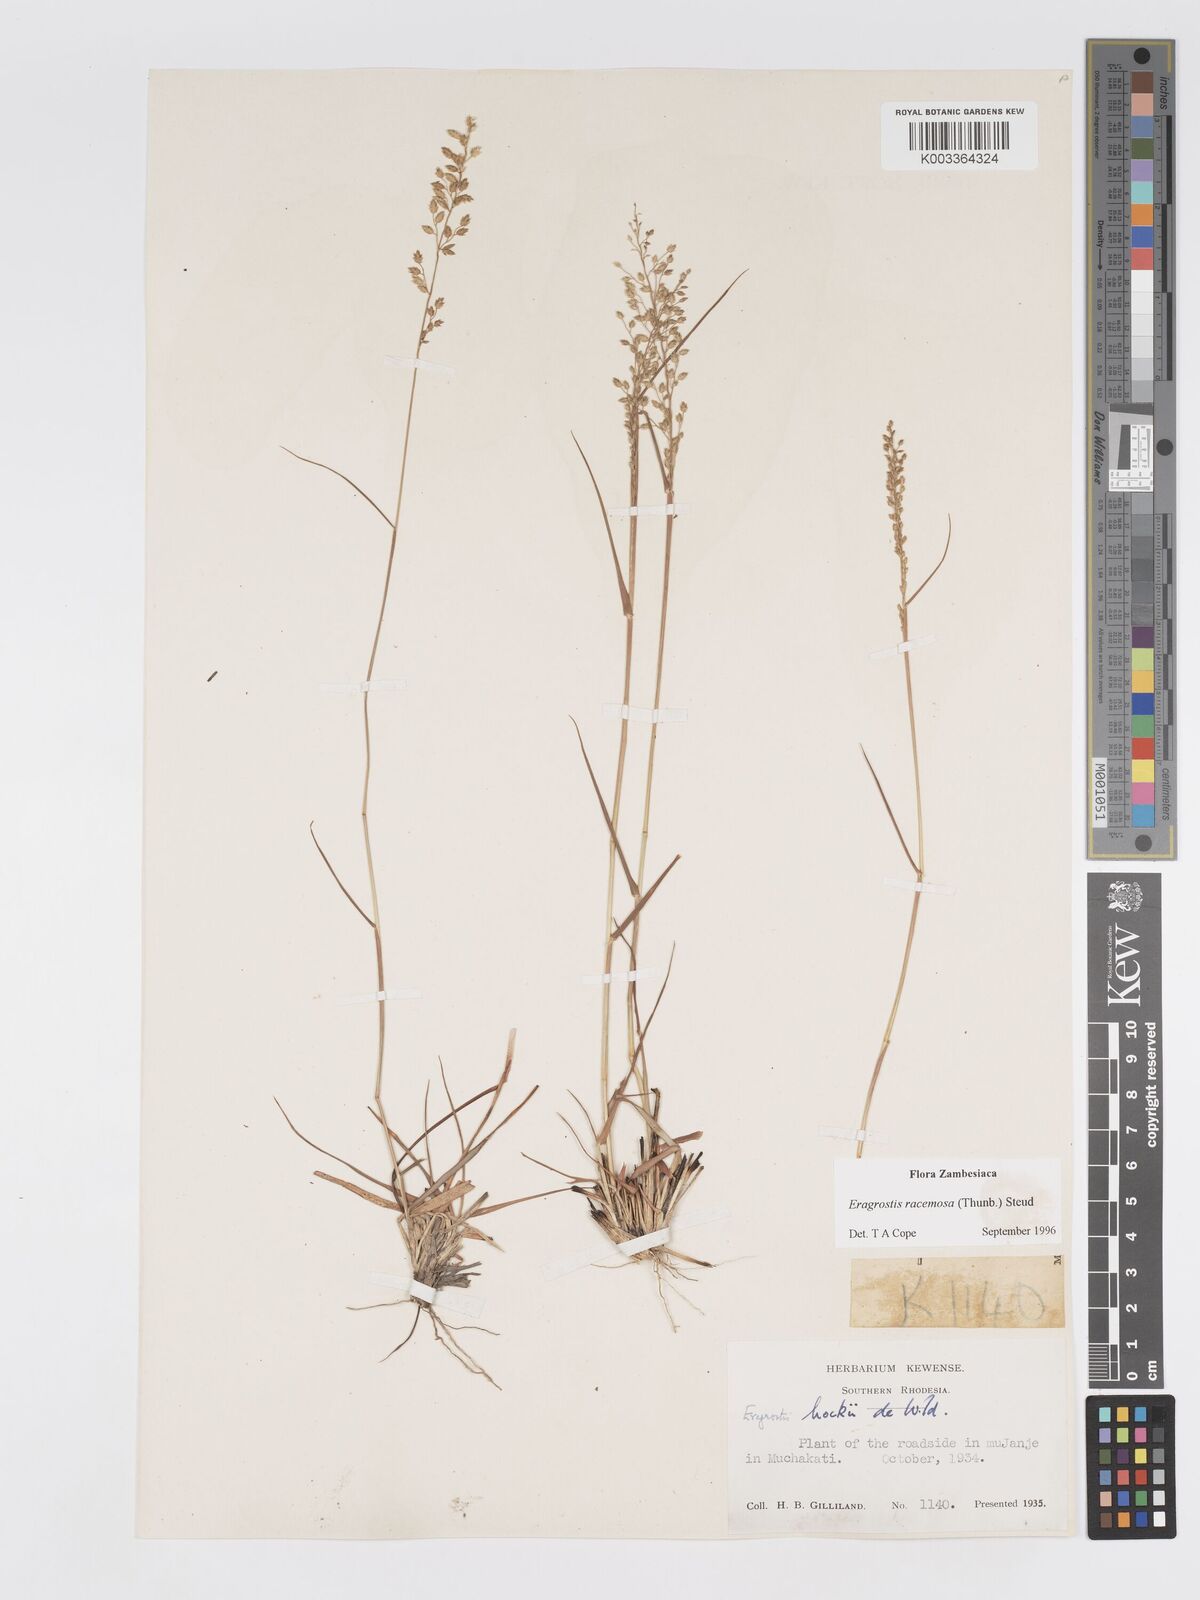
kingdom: Plantae
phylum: Tracheophyta
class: Liliopsida
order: Poales
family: Poaceae
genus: Eragrostis
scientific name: Eragrostis racemosa
